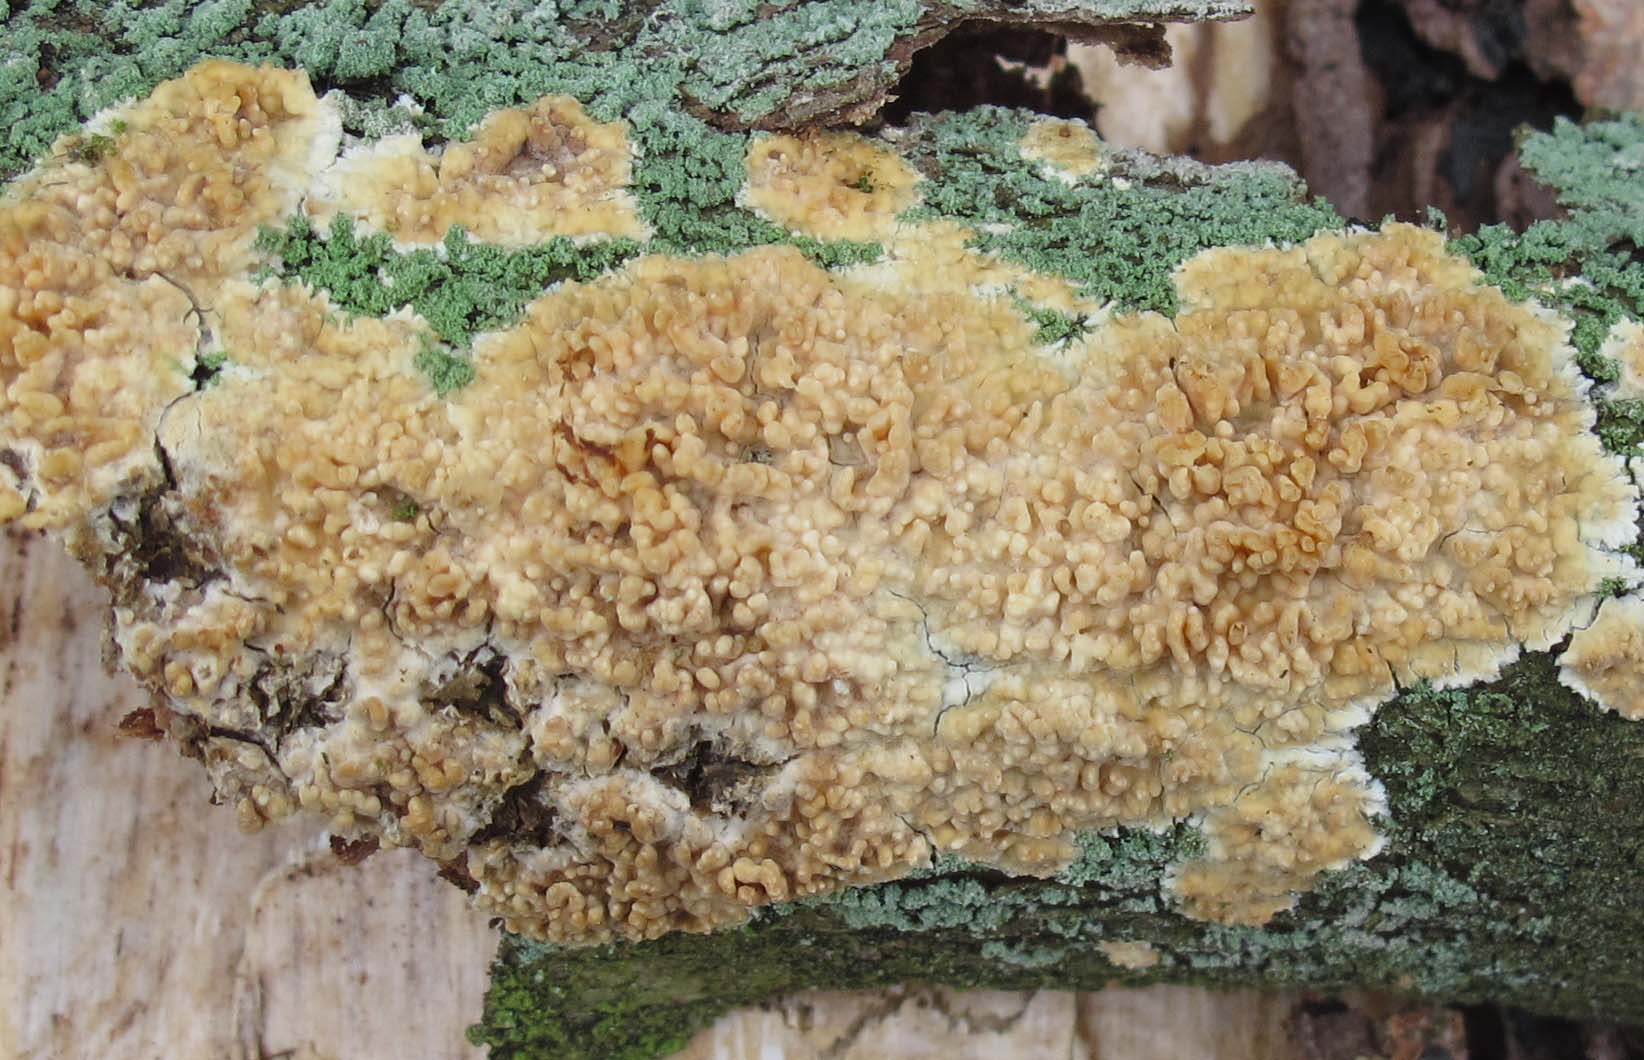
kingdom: Fungi
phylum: Basidiomycota
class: Agaricomycetes
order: Hymenochaetales
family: Schizoporaceae
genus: Xylodon
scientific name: Xylodon radula
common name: grovtandet kalkskind
